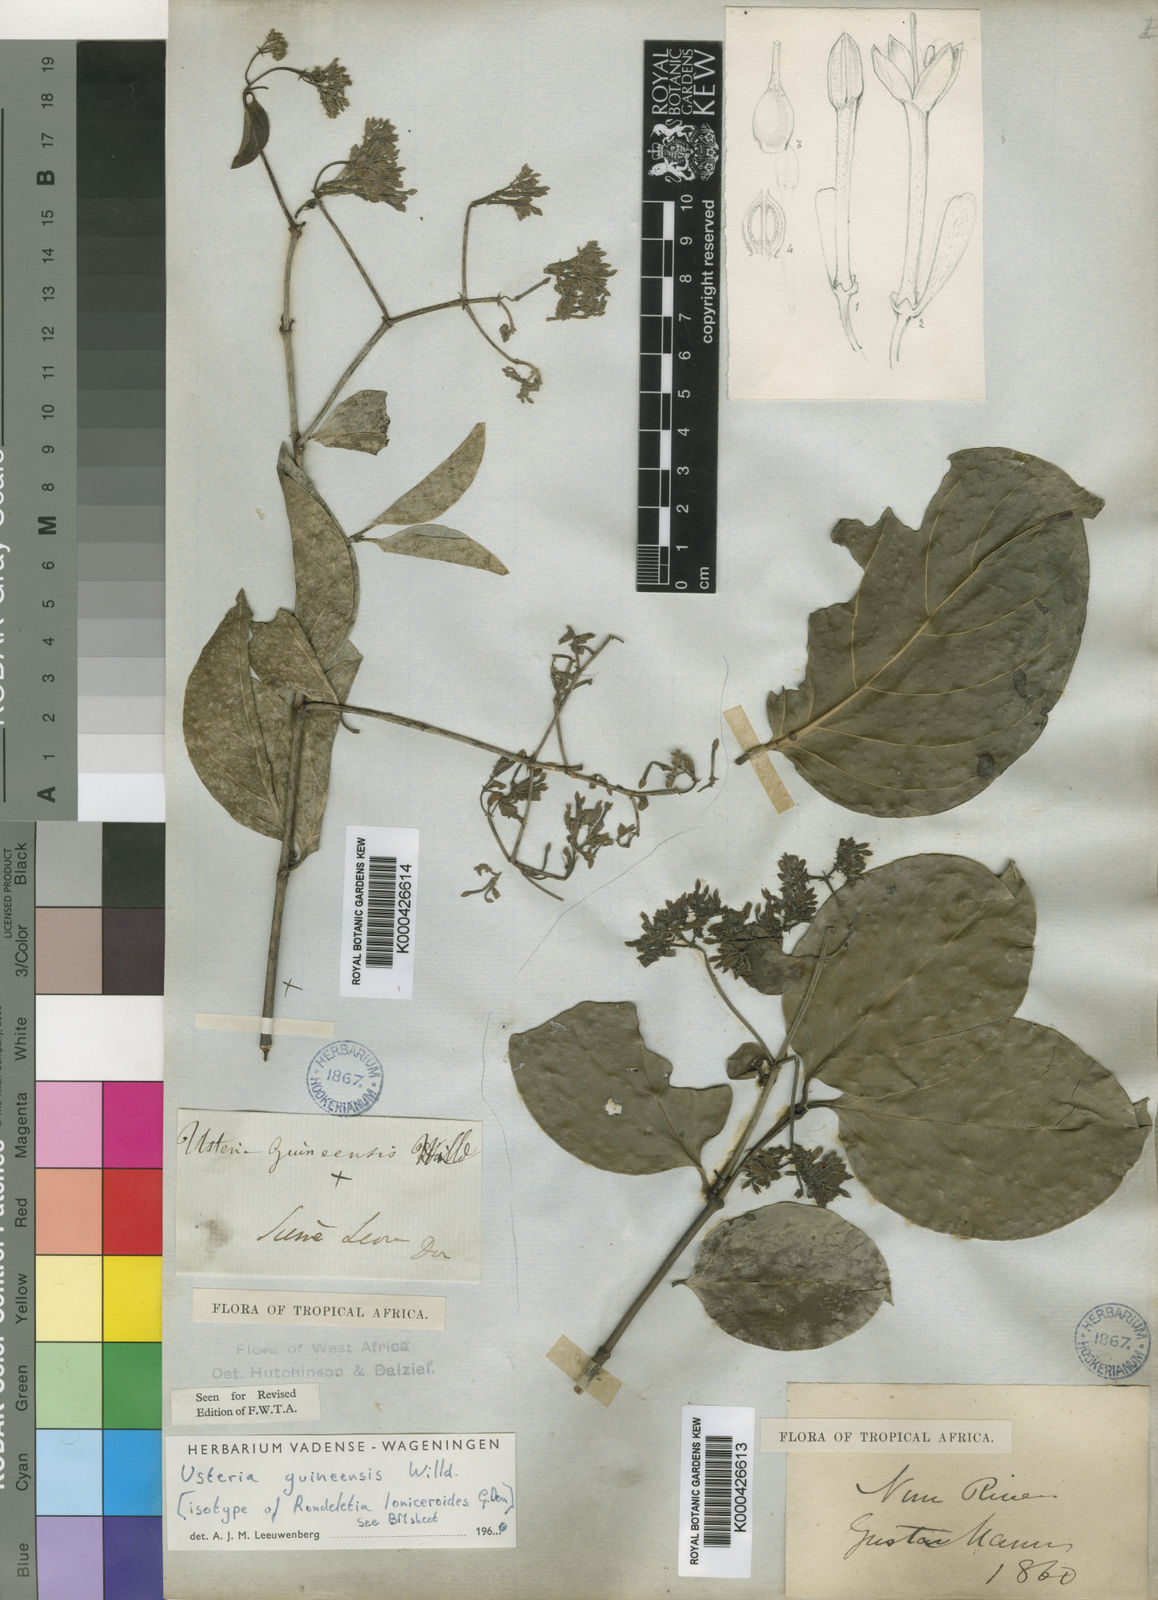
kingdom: Plantae
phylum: Tracheophyta
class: Magnoliopsida
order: Gentianales
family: Loganiaceae
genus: Usteria
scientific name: Usteria guineensis
